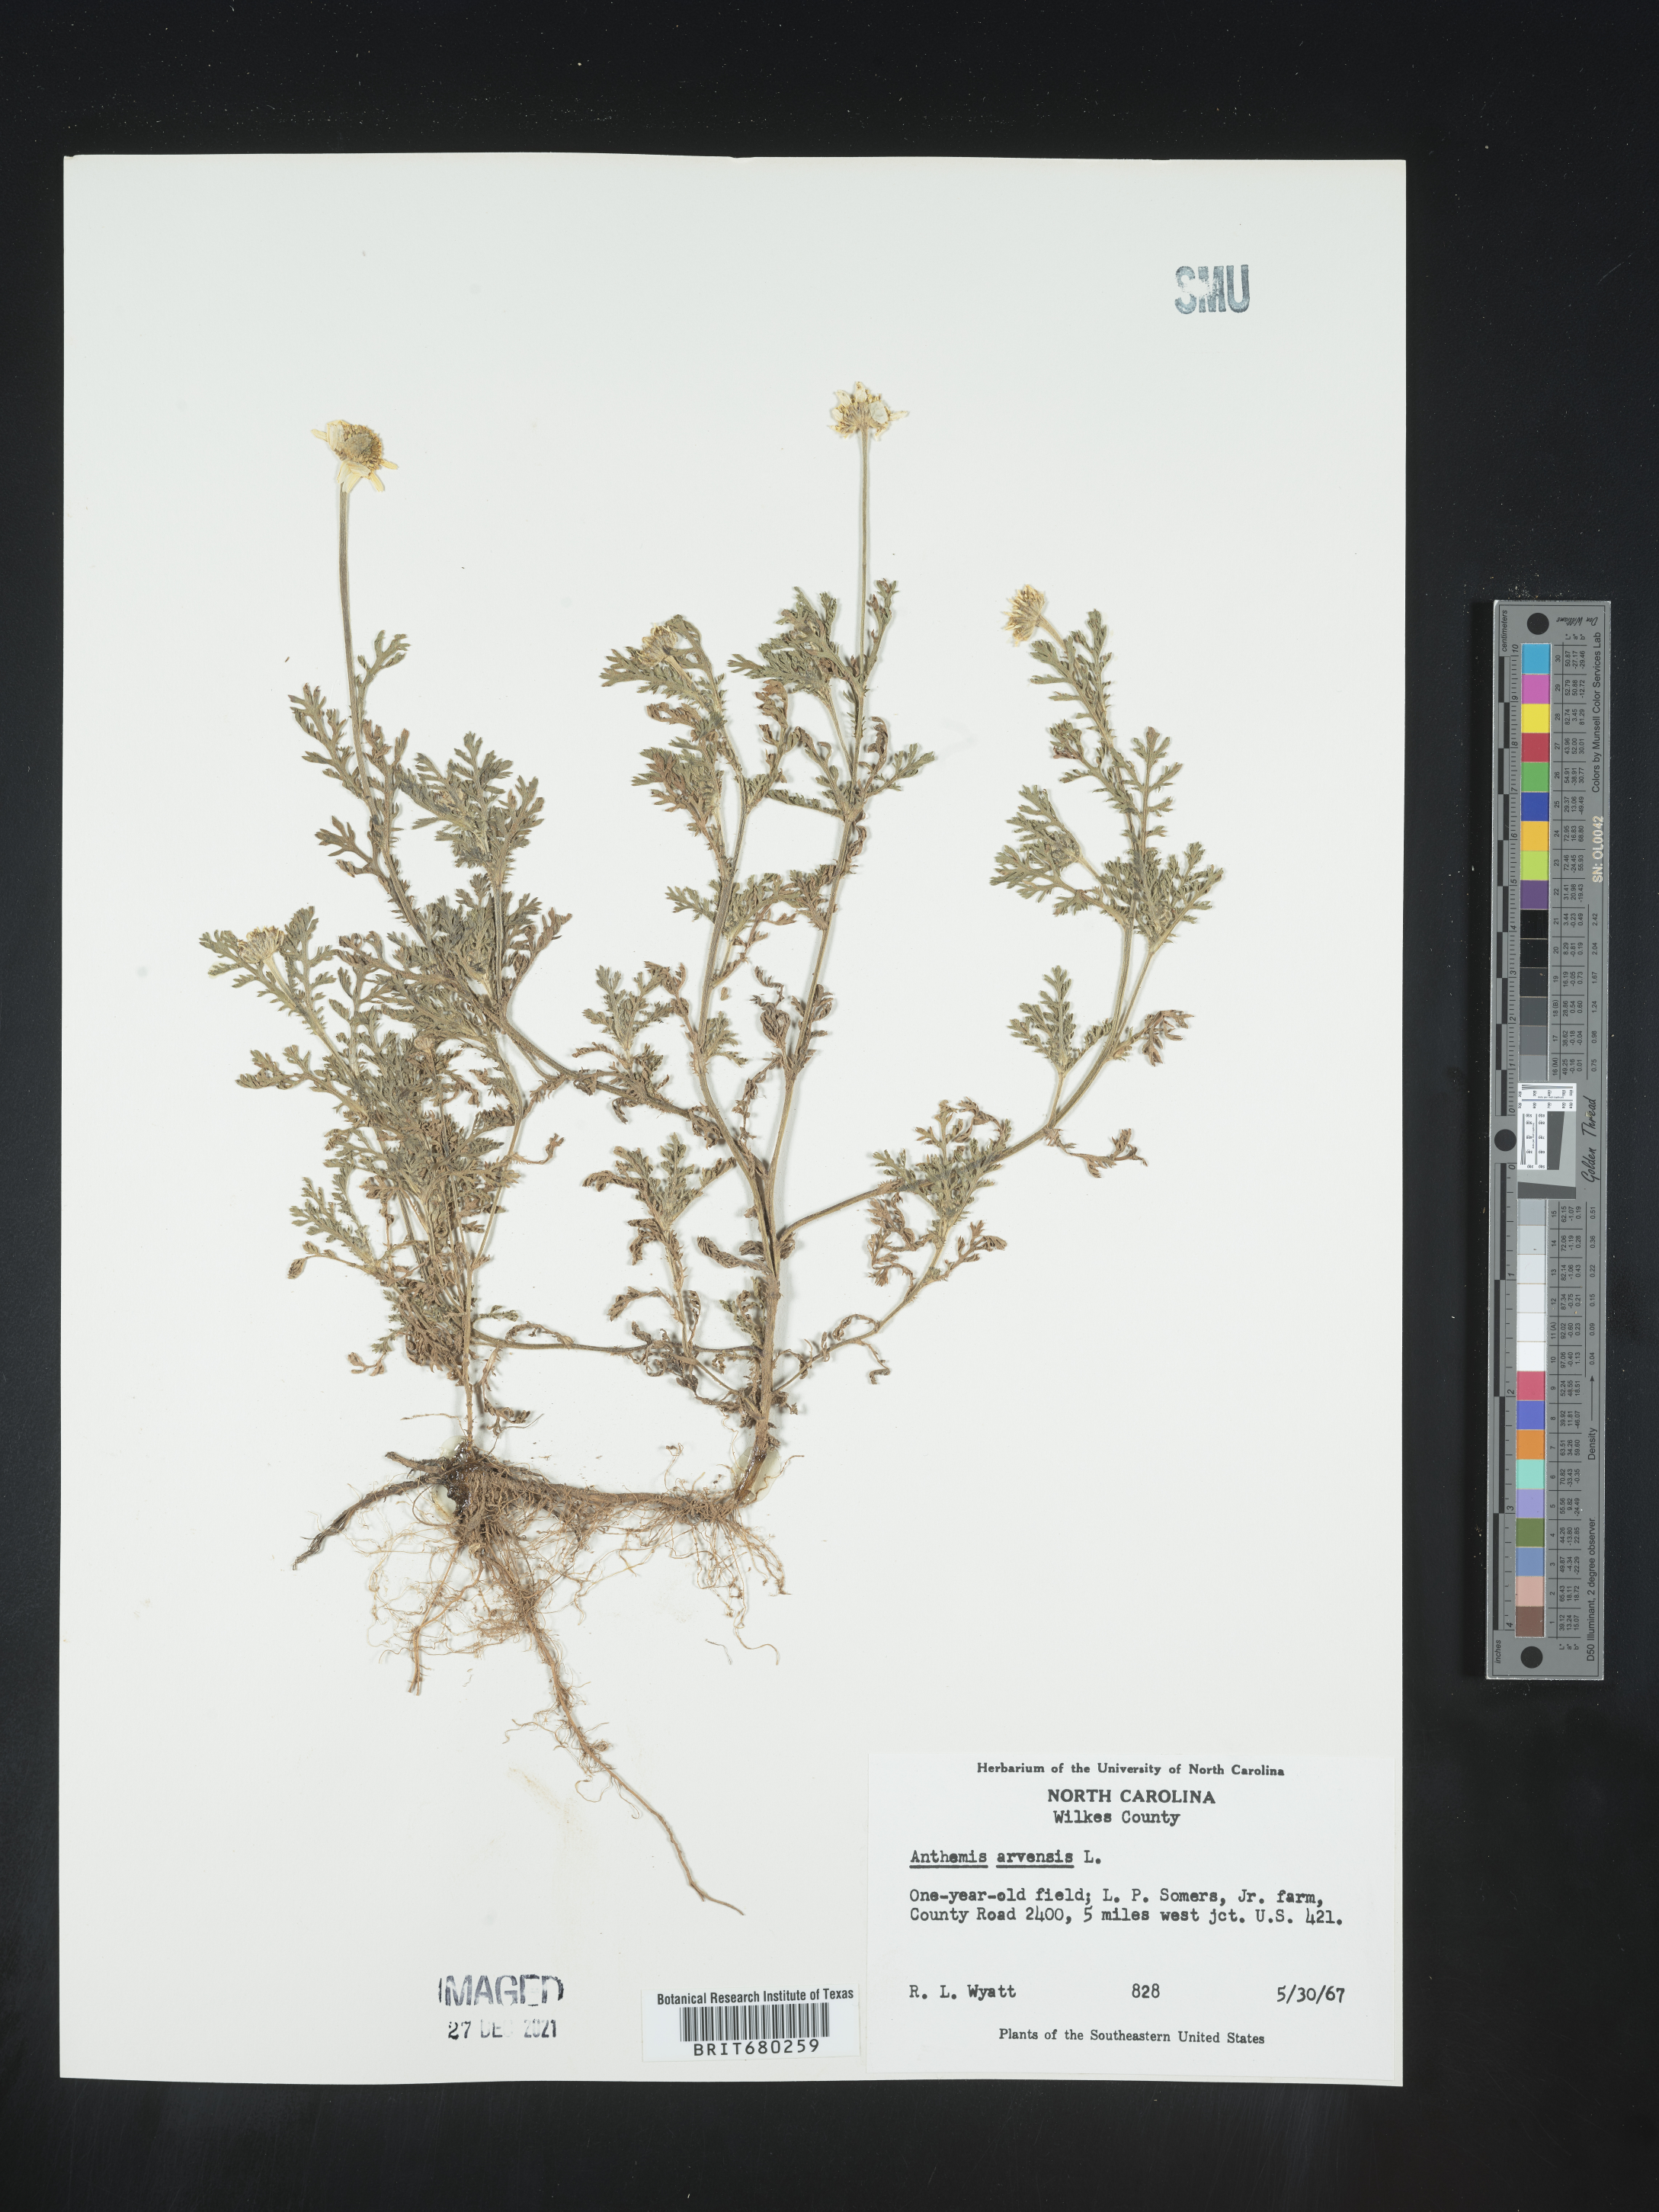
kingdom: Plantae
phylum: Tracheophyta
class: Magnoliopsida
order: Asterales
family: Asteraceae
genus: Anthemis
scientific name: Anthemis arvensis
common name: Corn chamomile
